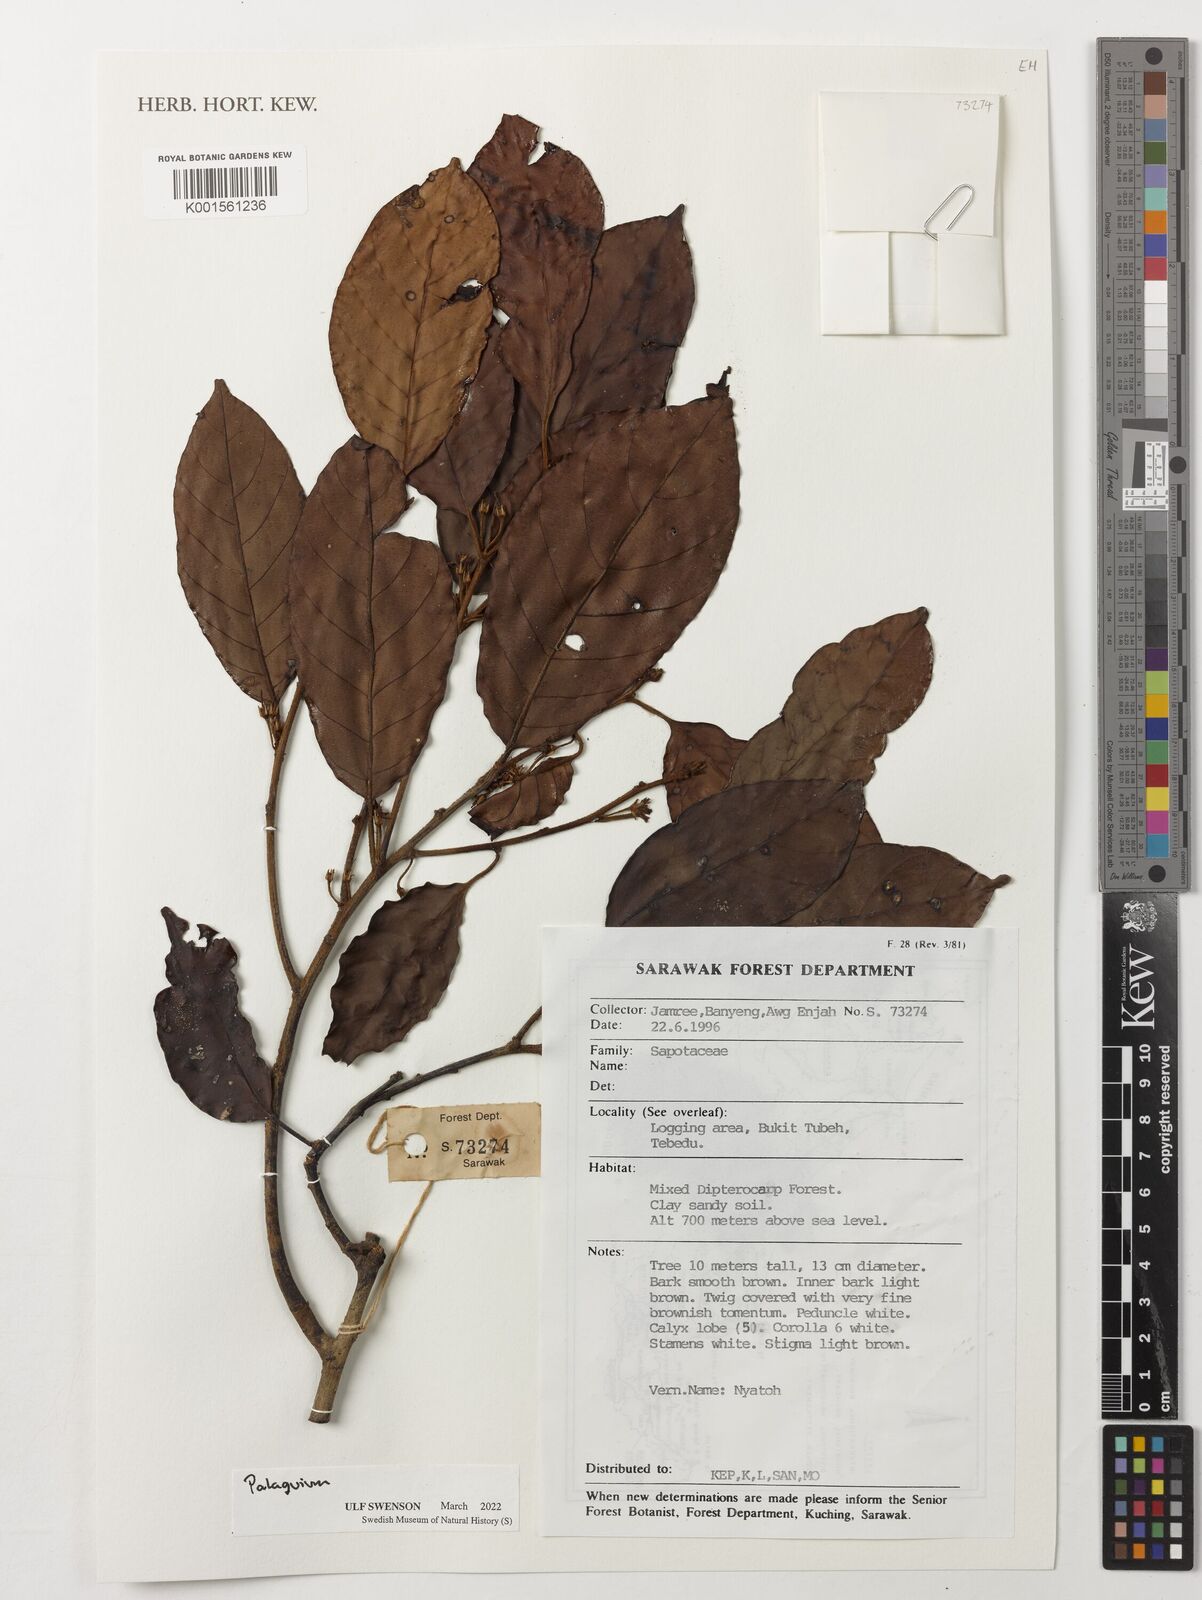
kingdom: Plantae
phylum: Tracheophyta
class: Magnoliopsida
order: Ericales
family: Sapotaceae
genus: Palaquium
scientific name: Palaquium
